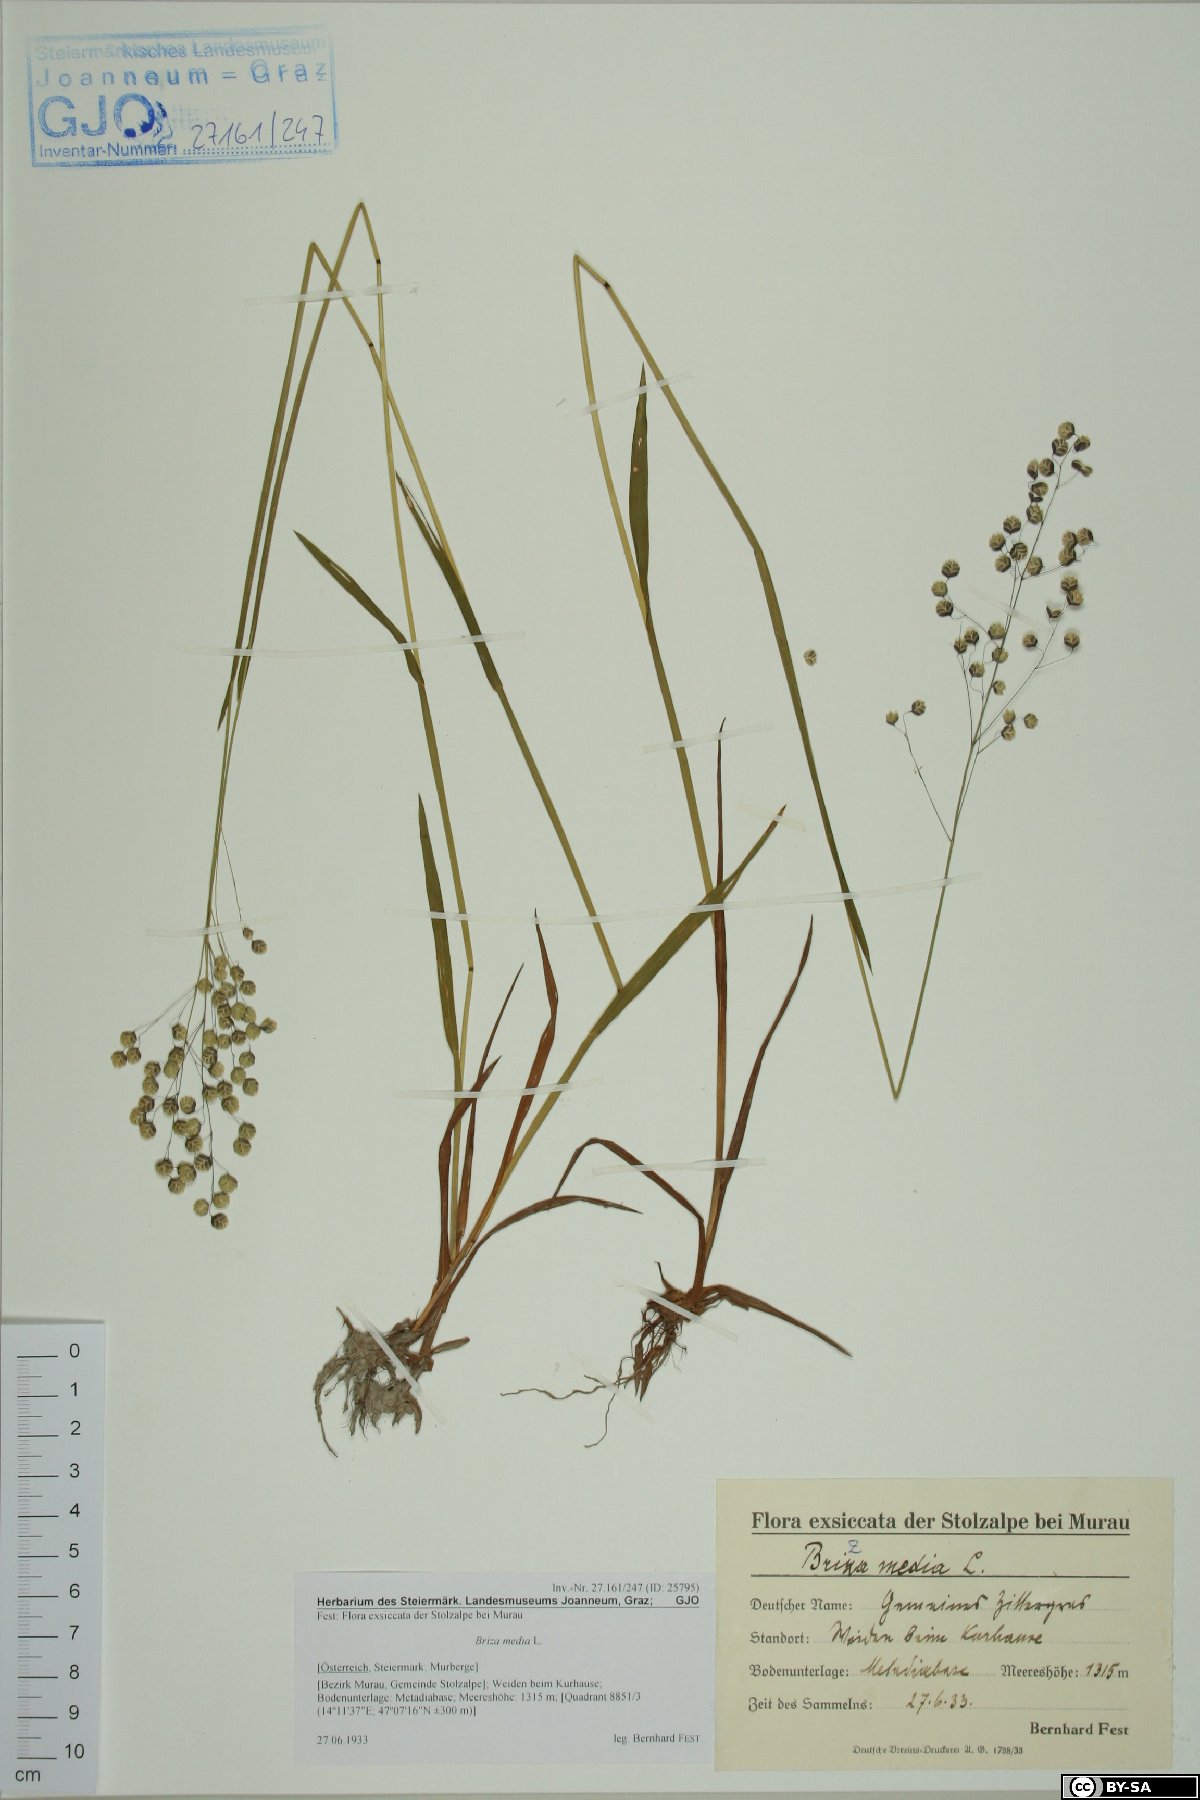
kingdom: Plantae
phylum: Tracheophyta
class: Liliopsida
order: Poales
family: Poaceae
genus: Briza
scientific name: Briza media
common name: Quaking grass
